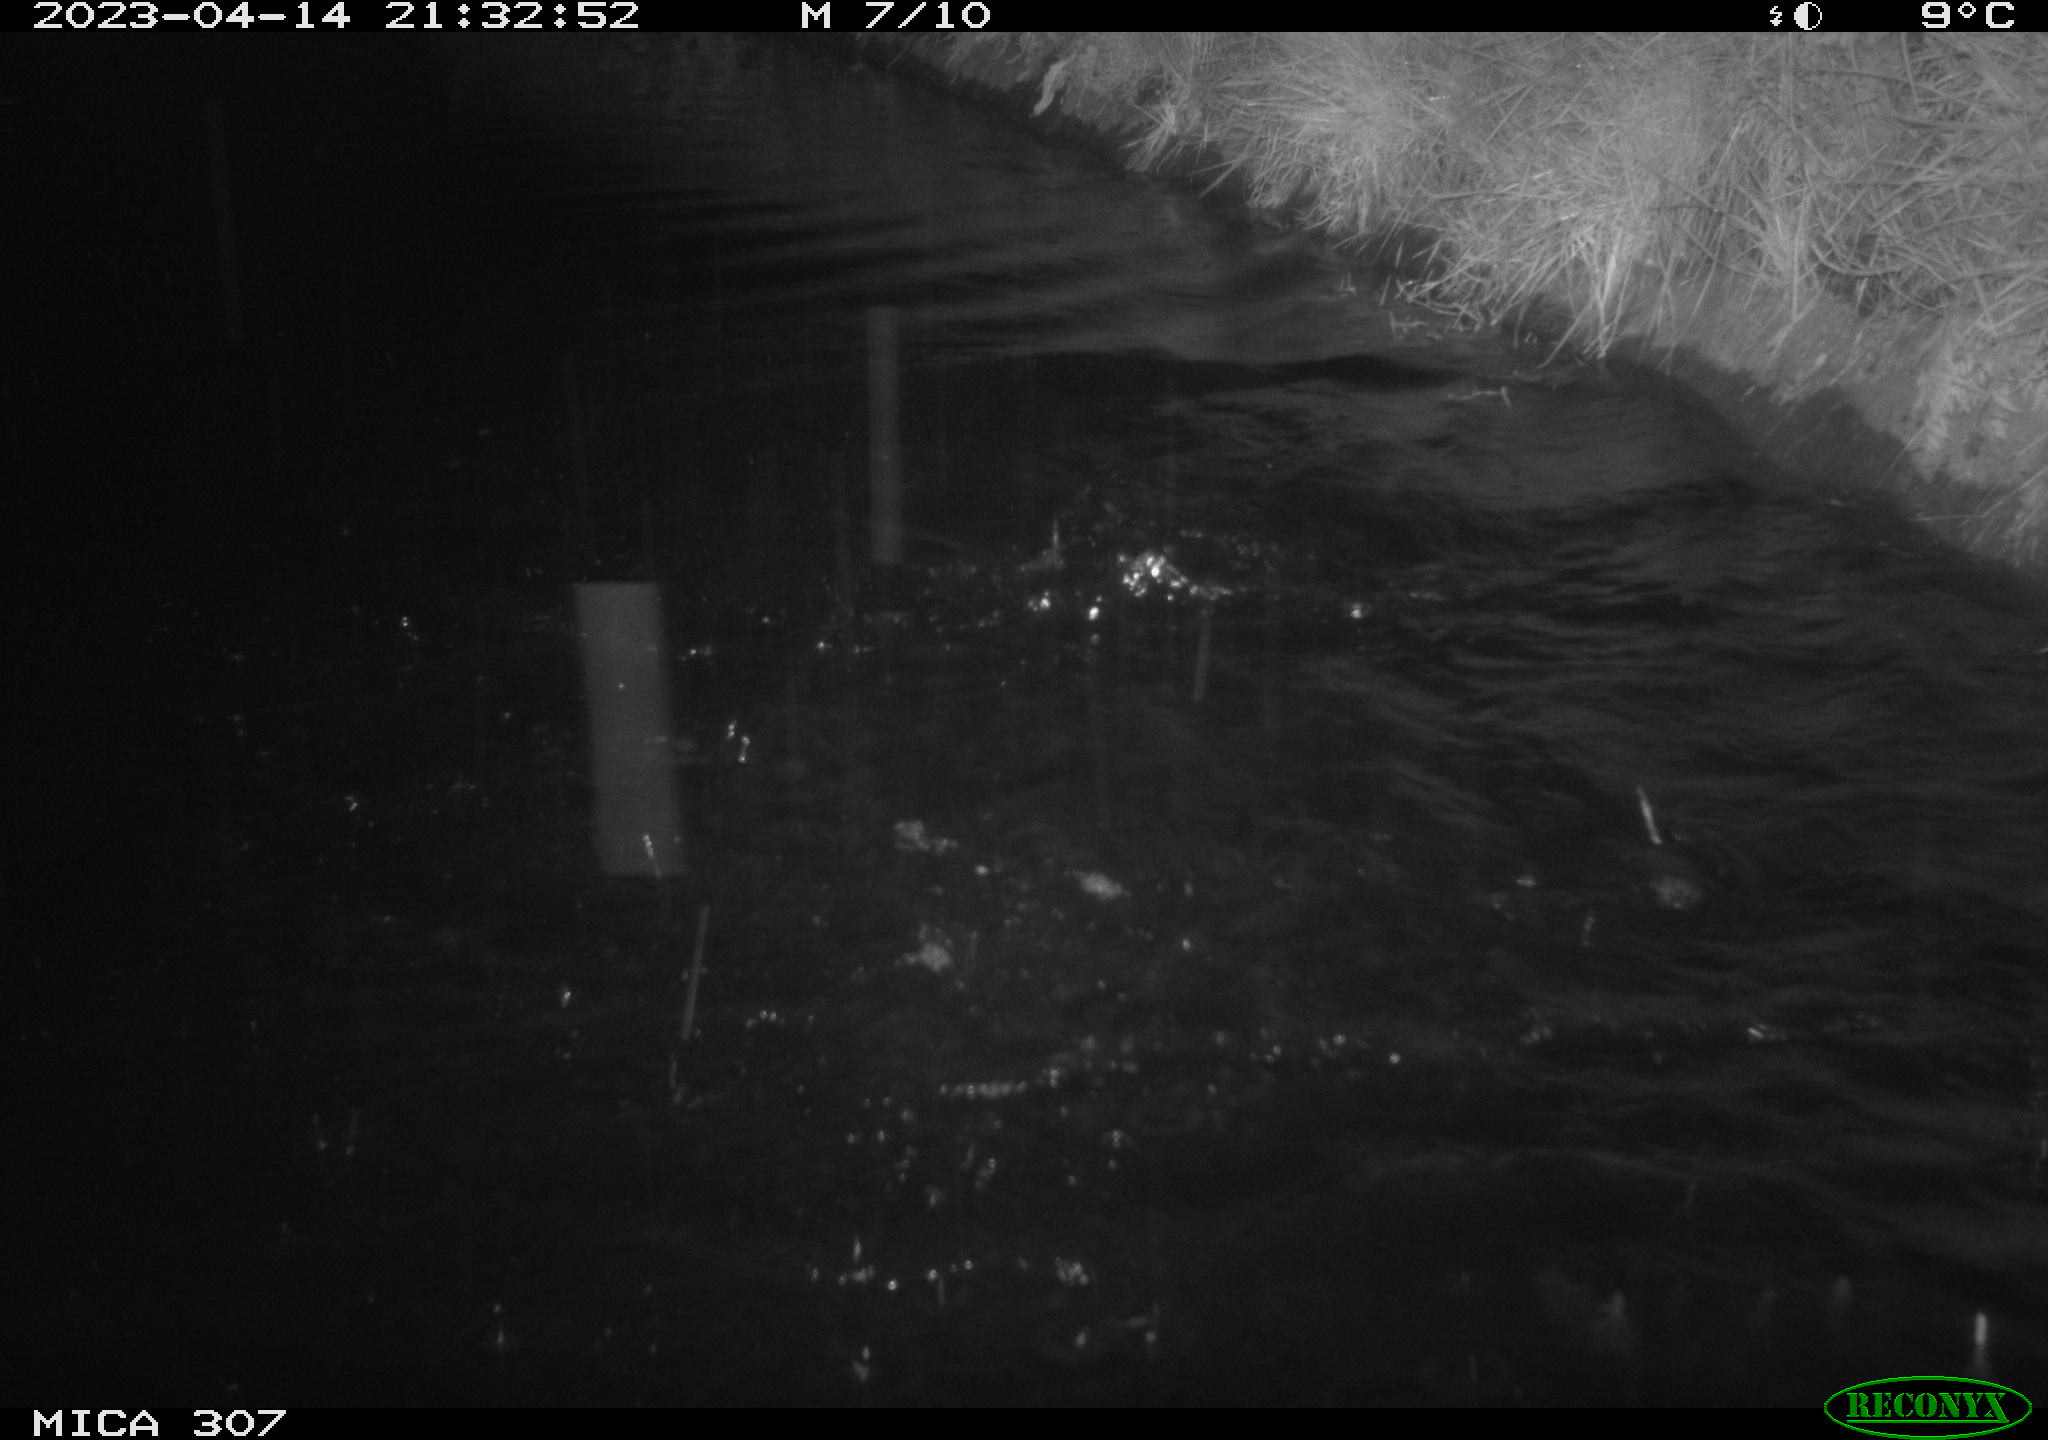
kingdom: Animalia
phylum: Chordata
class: Aves
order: Anseriformes
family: Anatidae
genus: Anas
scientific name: Anas
